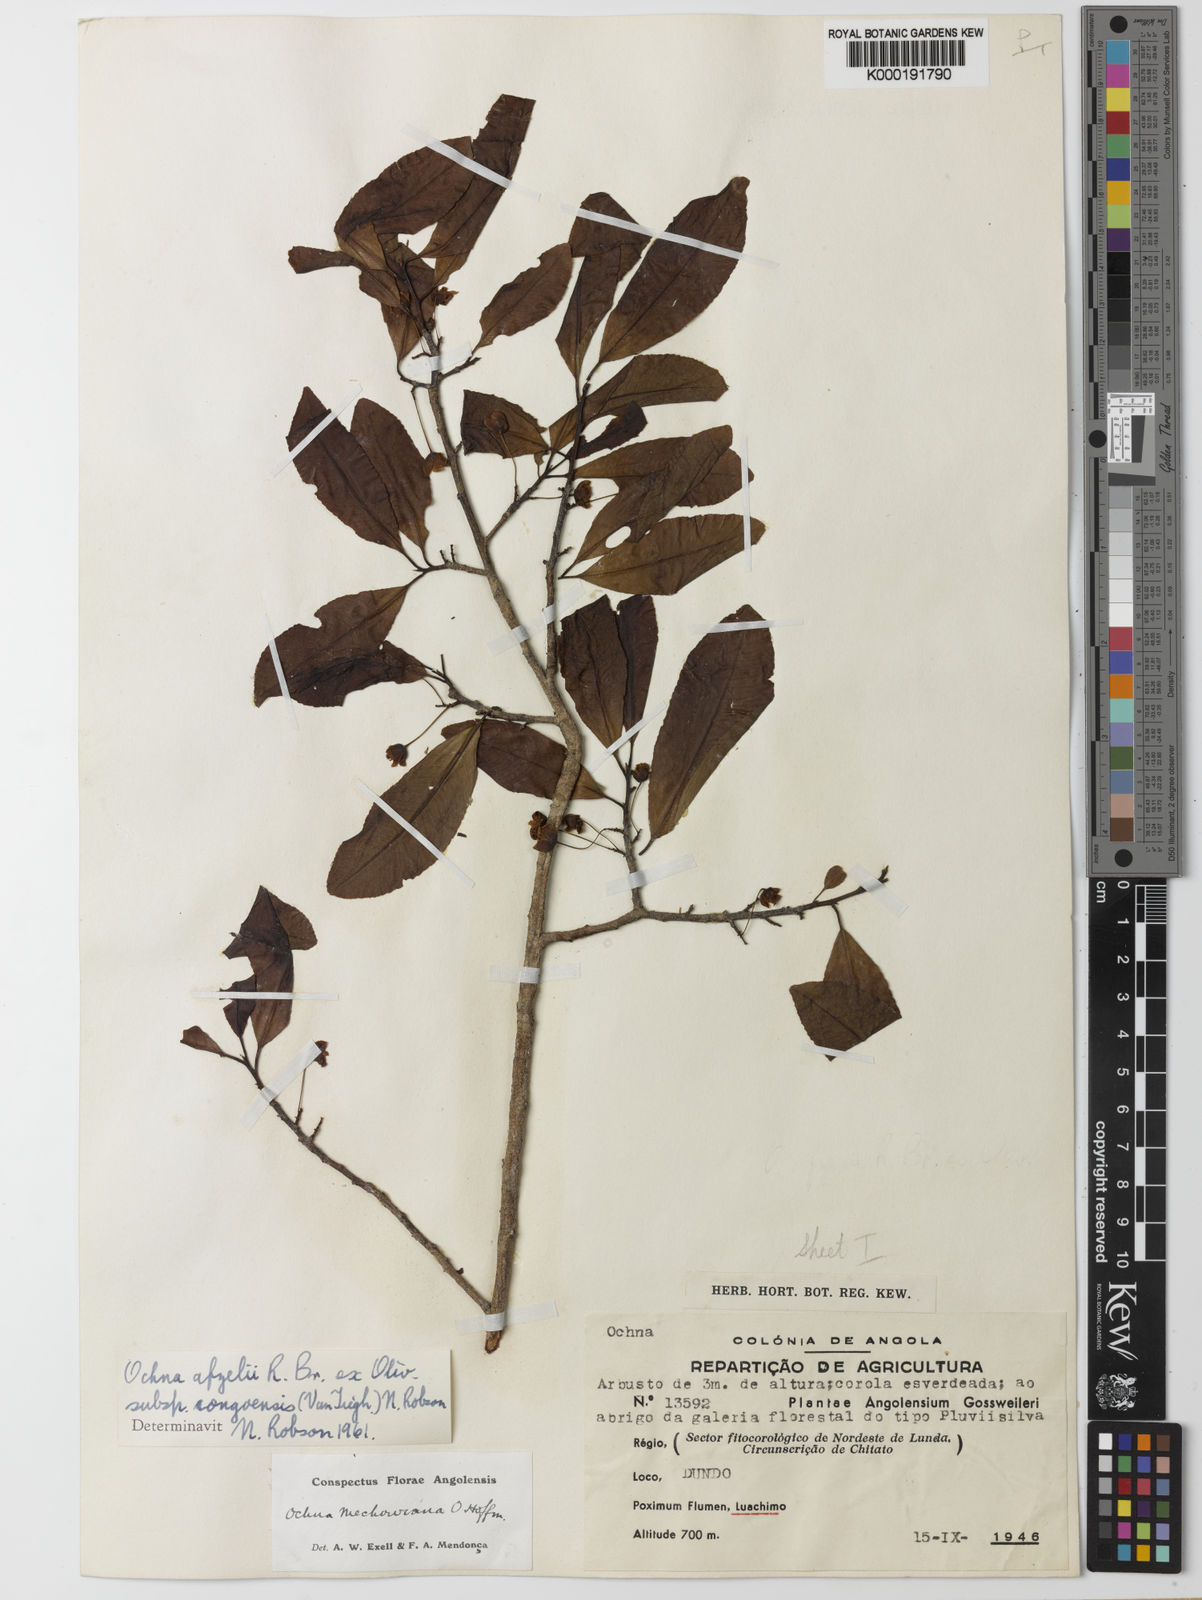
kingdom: Plantae
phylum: Tracheophyta
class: Magnoliopsida
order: Malpighiales
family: Ochnaceae
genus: Ochna
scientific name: Ochna
